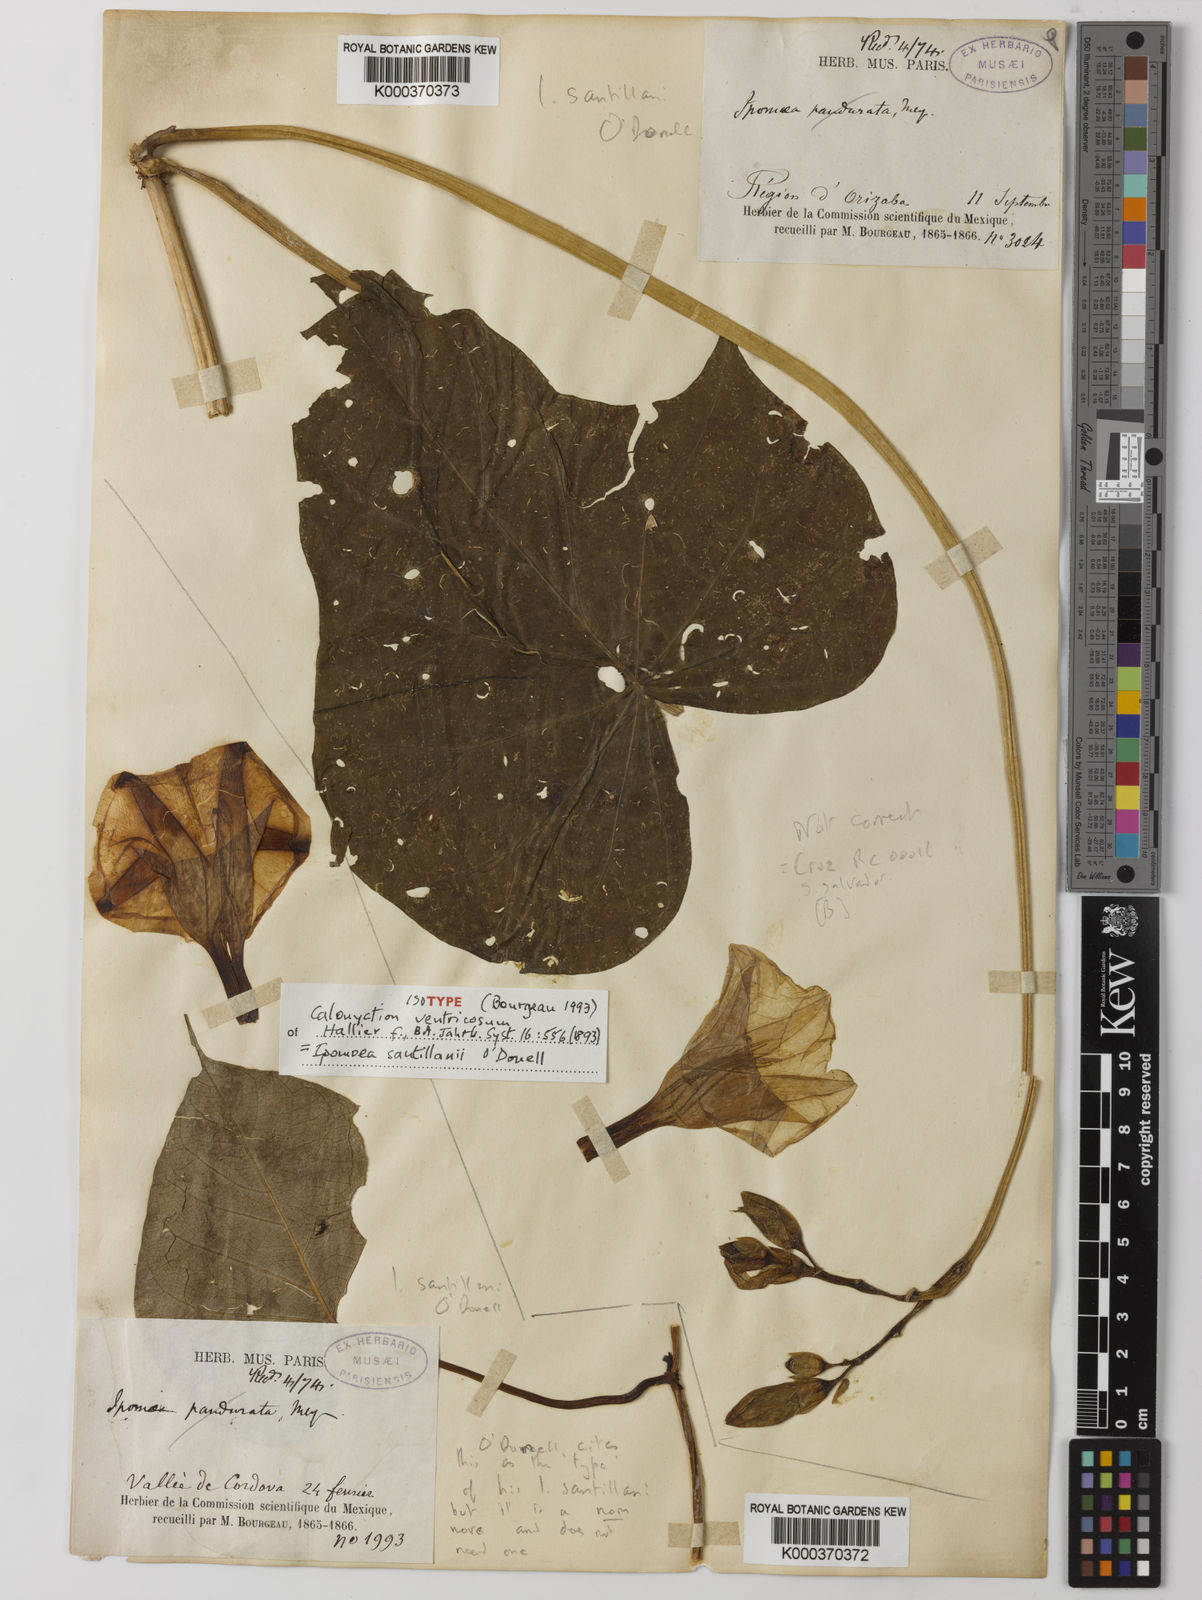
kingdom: Plantae
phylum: Tracheophyta
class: Magnoliopsida
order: Solanales
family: Convolvulaceae
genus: Ipomoea
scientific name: Ipomoea santillanii
